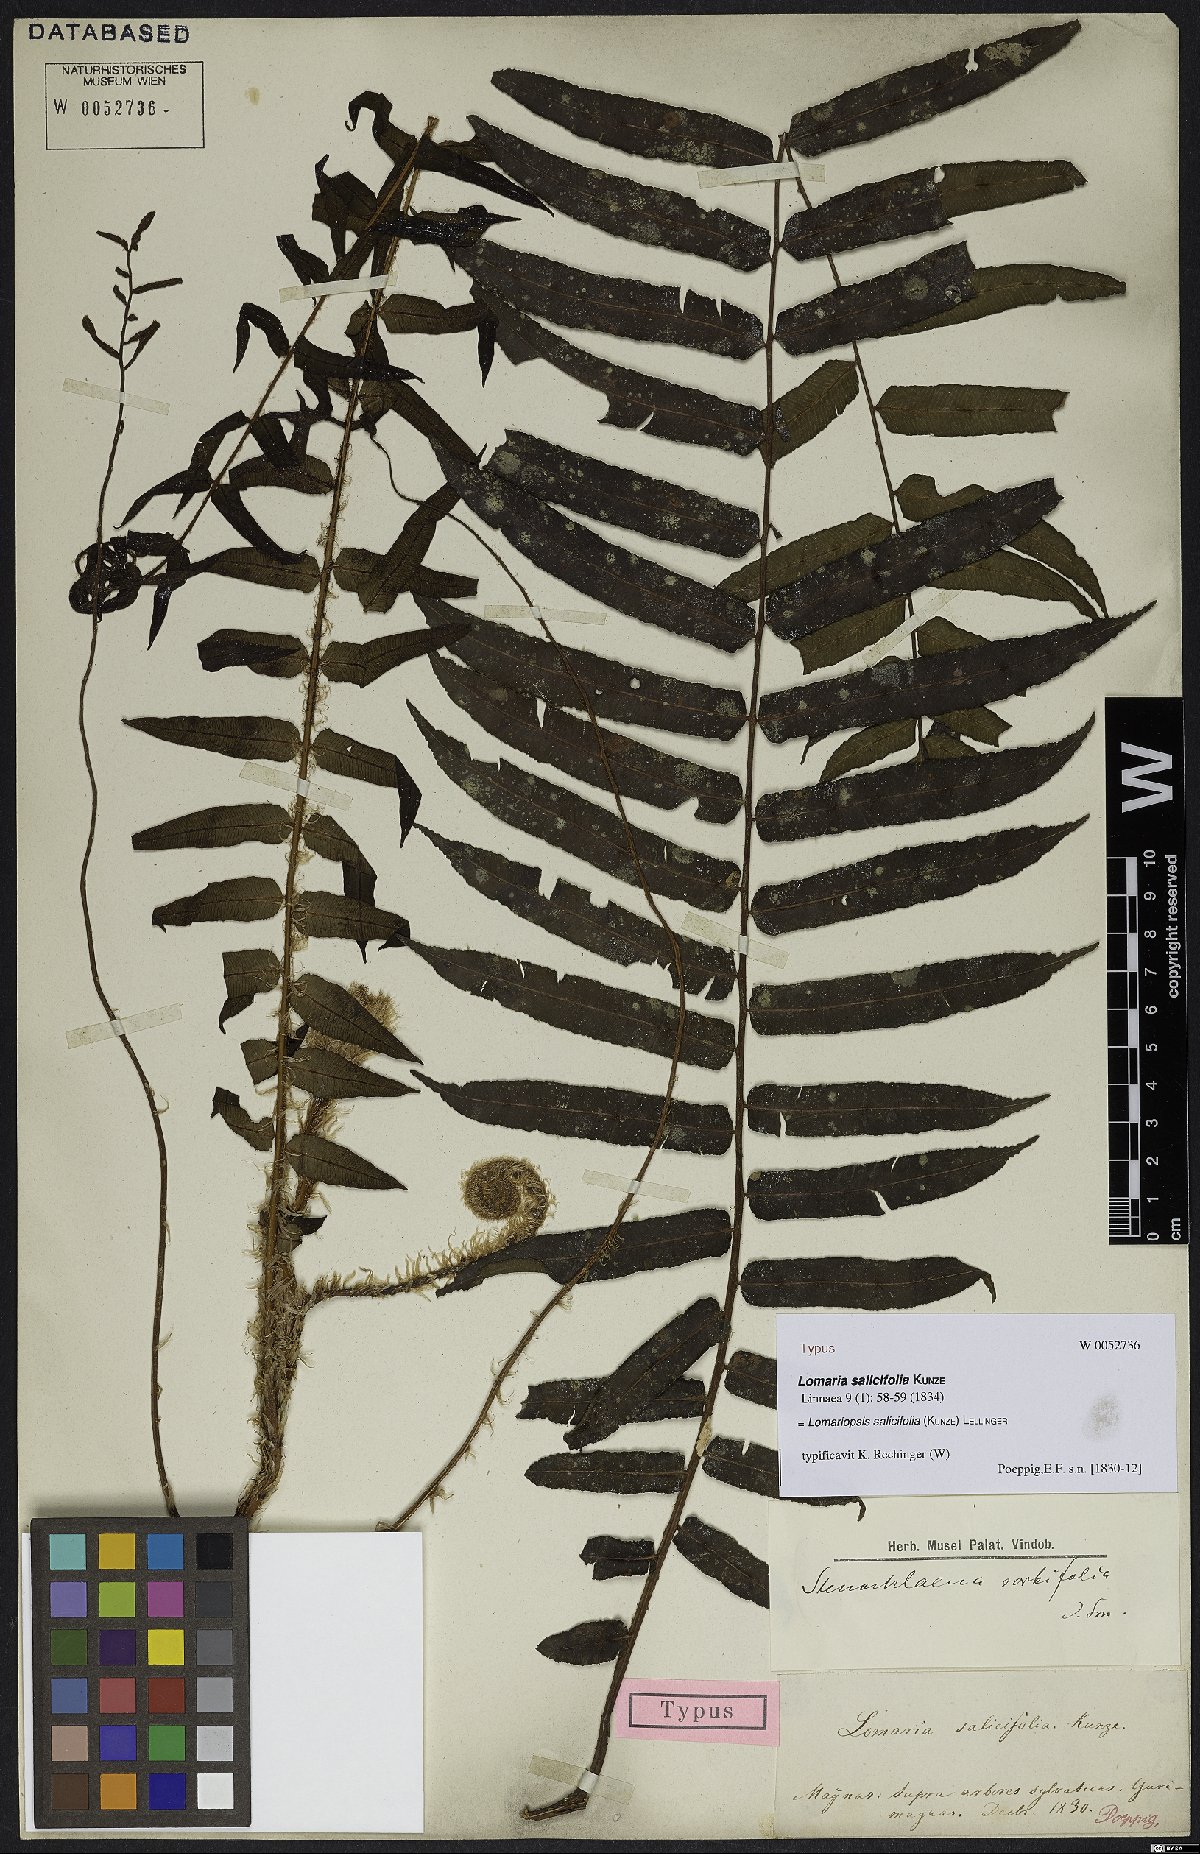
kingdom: Plantae
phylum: Tracheophyta
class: Polypodiopsida
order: Polypodiales
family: Lomariopsidaceae
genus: Lomariopsis
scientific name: Lomariopsis salicifolia
